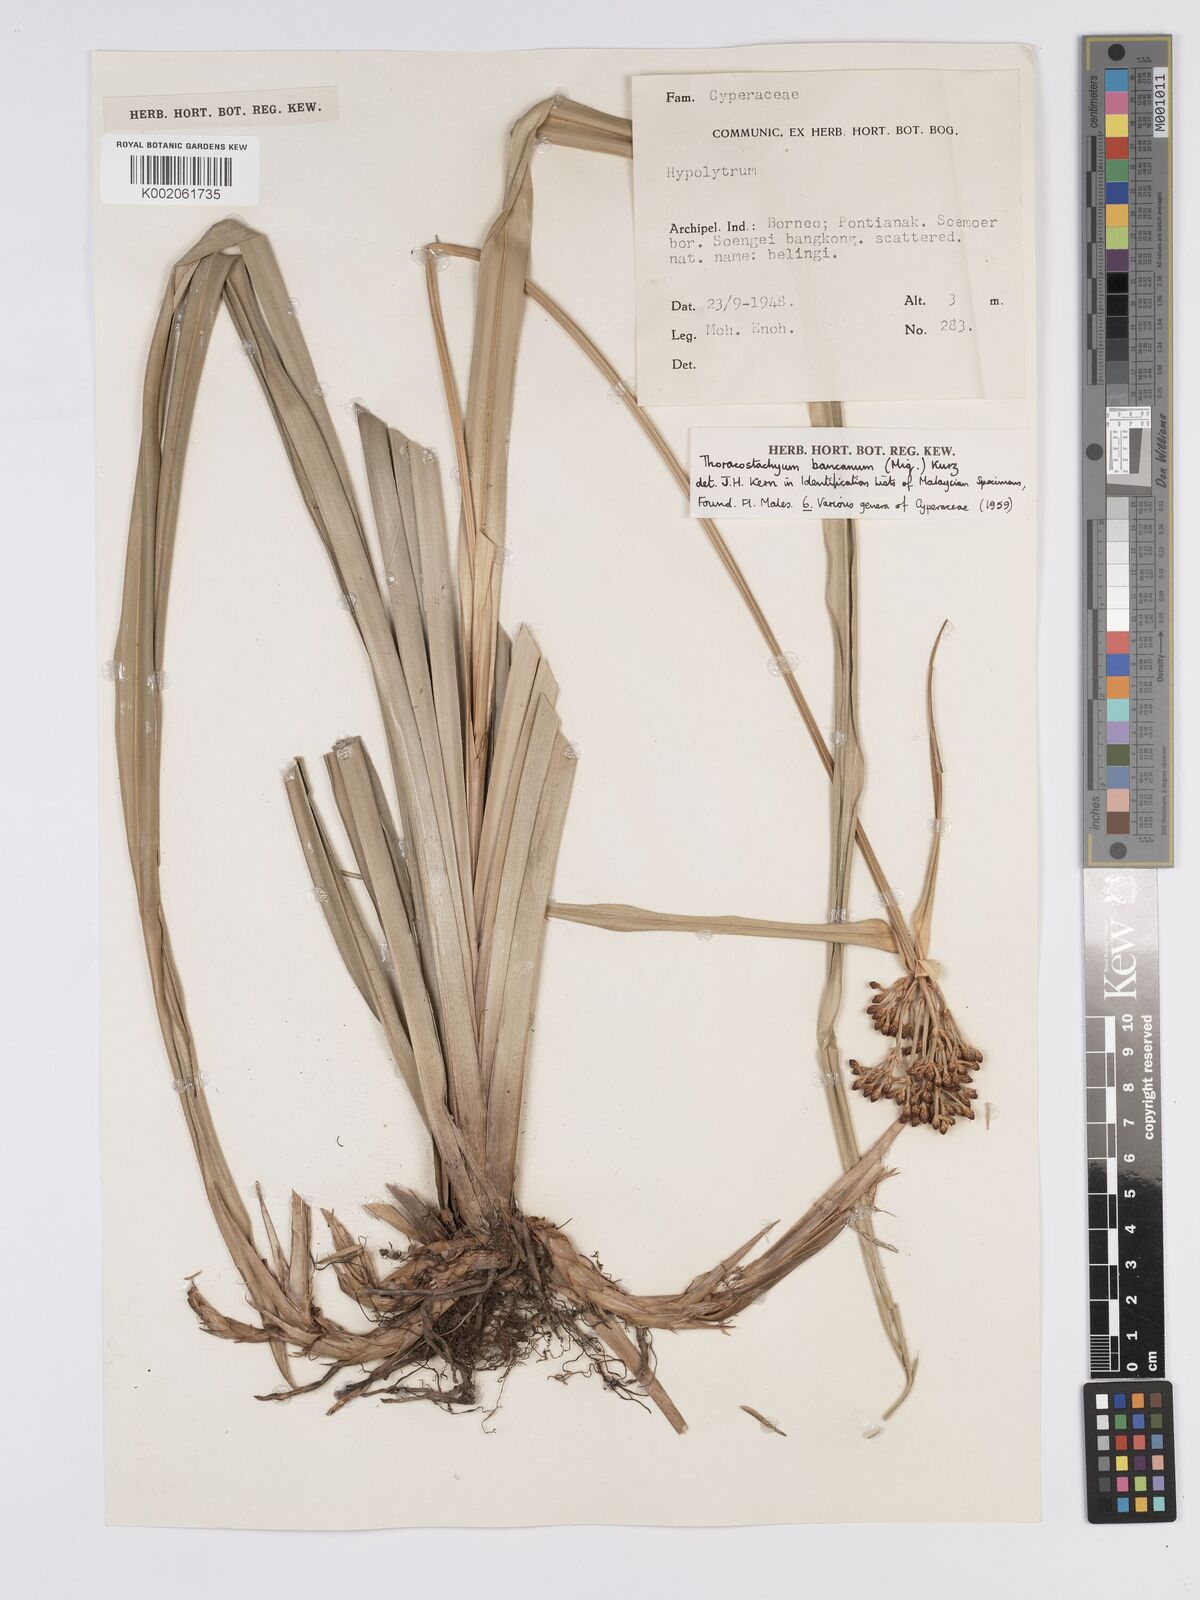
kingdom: Plantae
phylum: Tracheophyta
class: Liliopsida
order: Poales
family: Cyperaceae
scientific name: Cyperaceae
